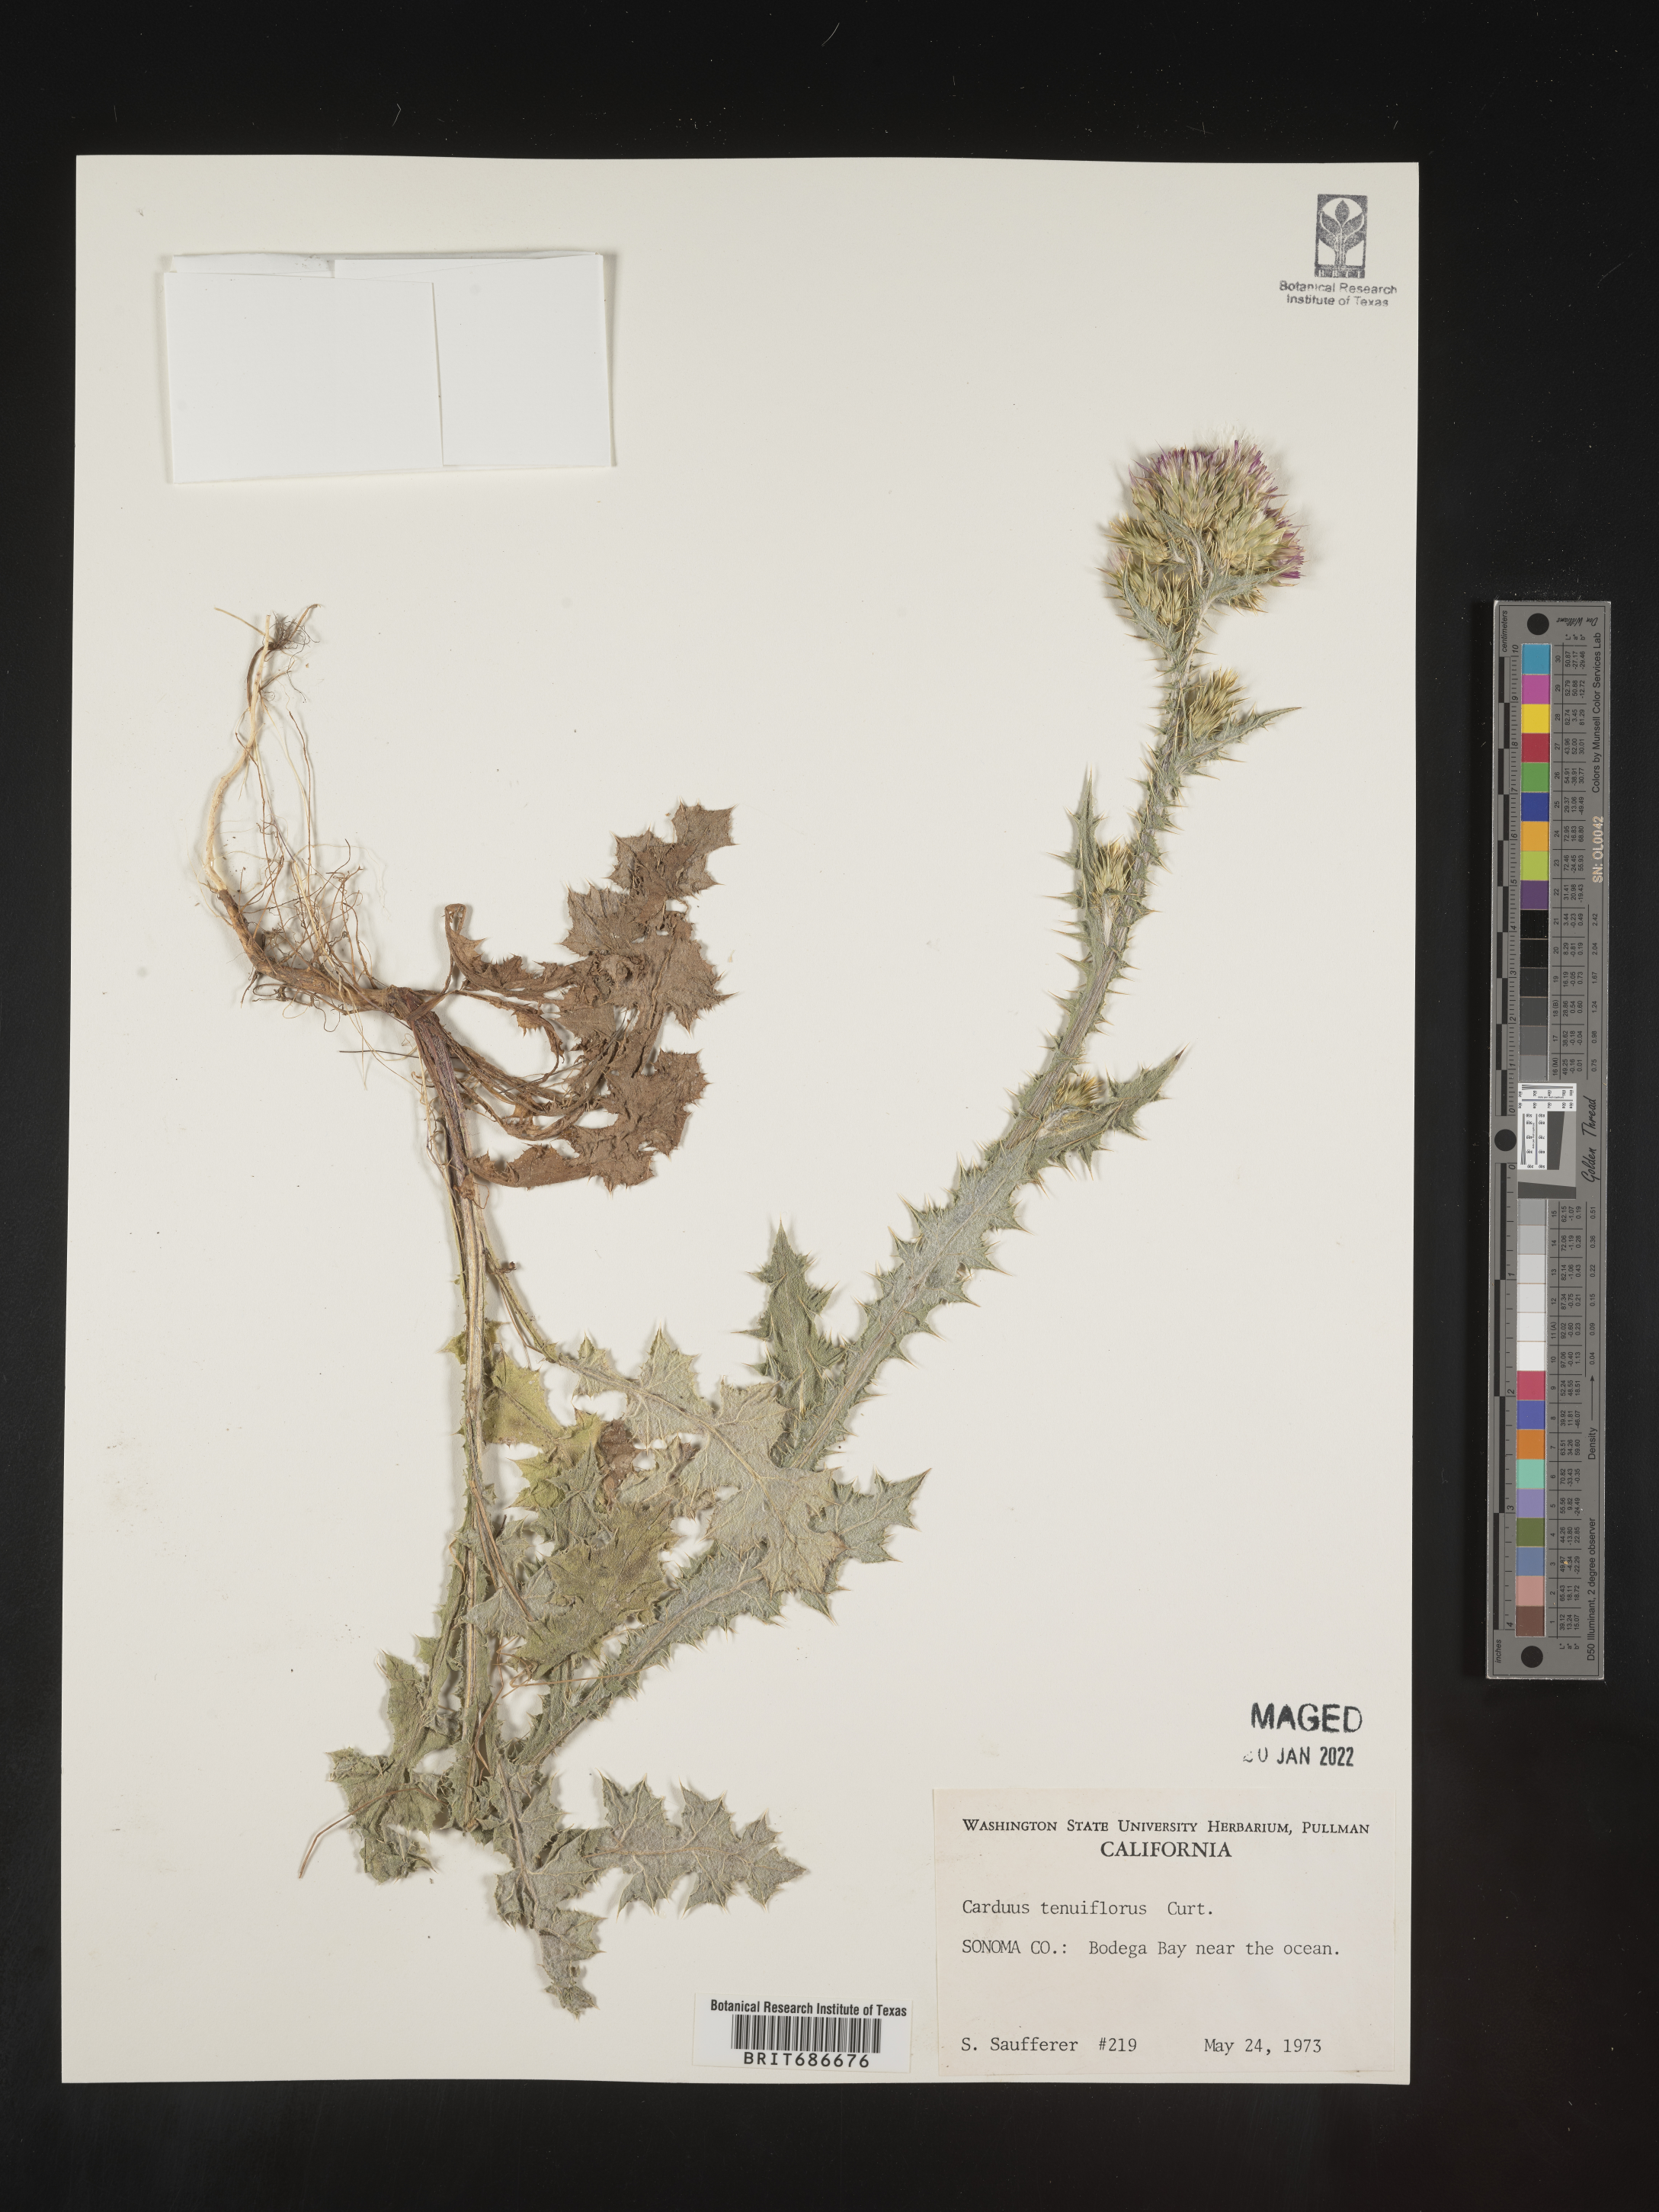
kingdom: Plantae
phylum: Tracheophyta
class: Magnoliopsida
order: Asterales
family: Asteraceae
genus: Carduus
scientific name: Carduus tenuiflorus
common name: Slender thistle
